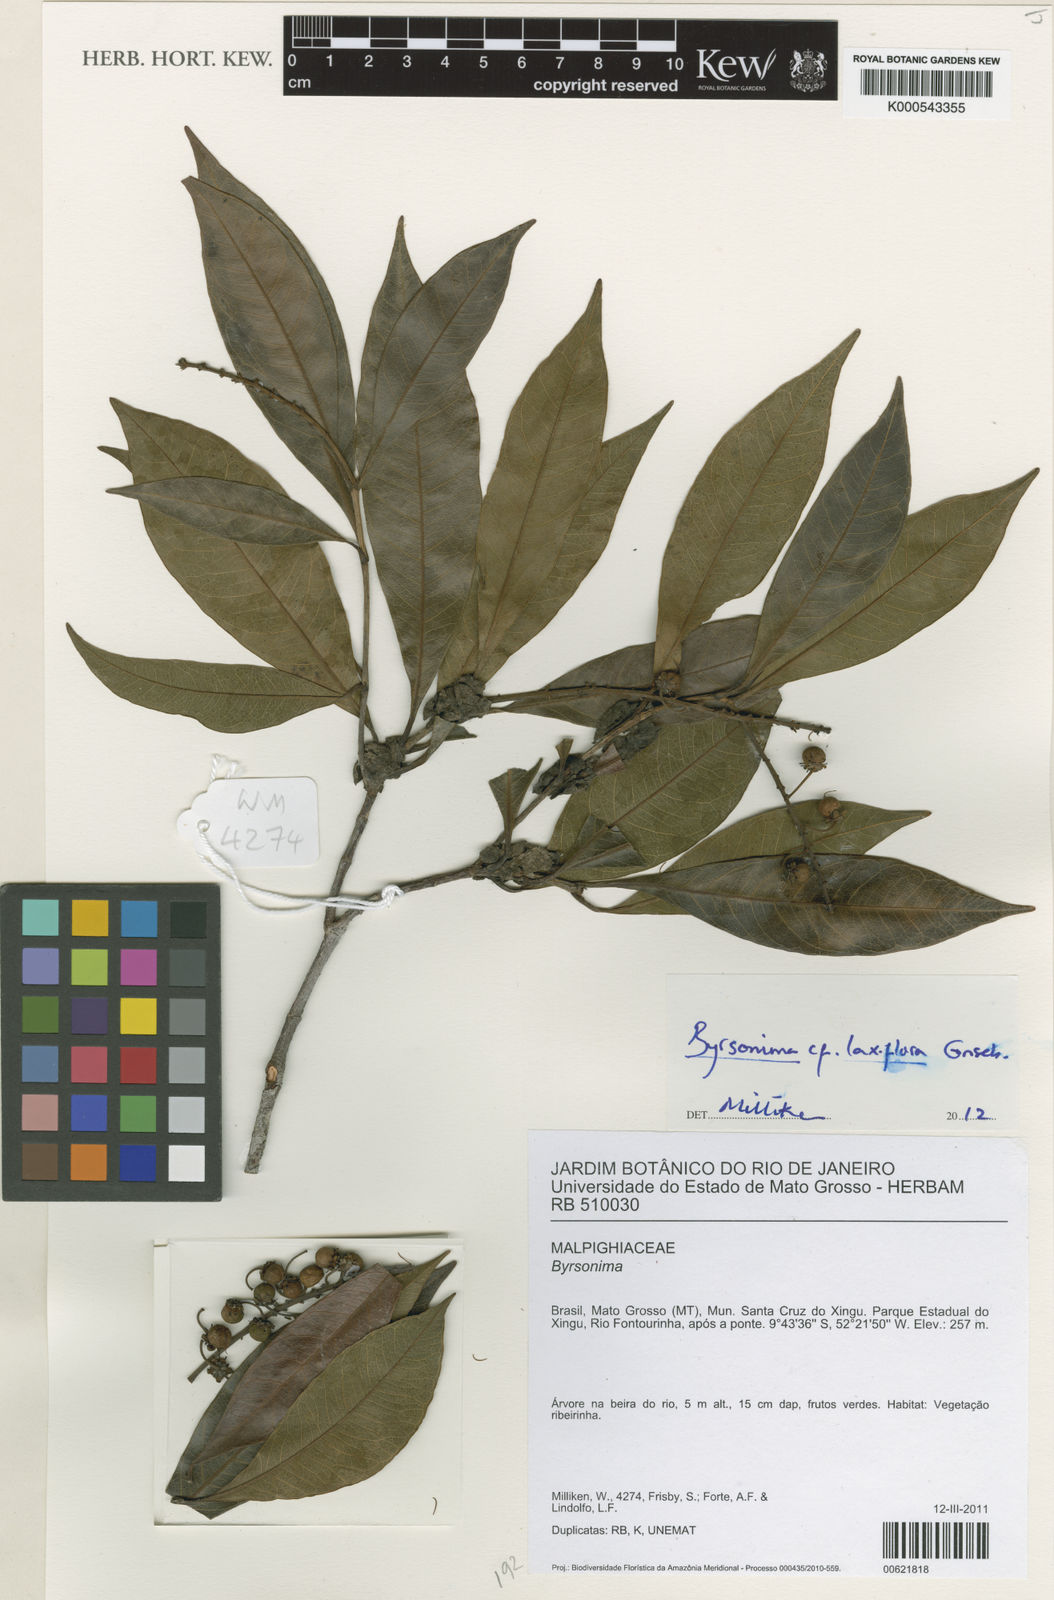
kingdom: Plantae
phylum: Tracheophyta
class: Magnoliopsida
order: Malpighiales
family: Malpighiaceae
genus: Byrsonima
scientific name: Byrsonima laxiflora
